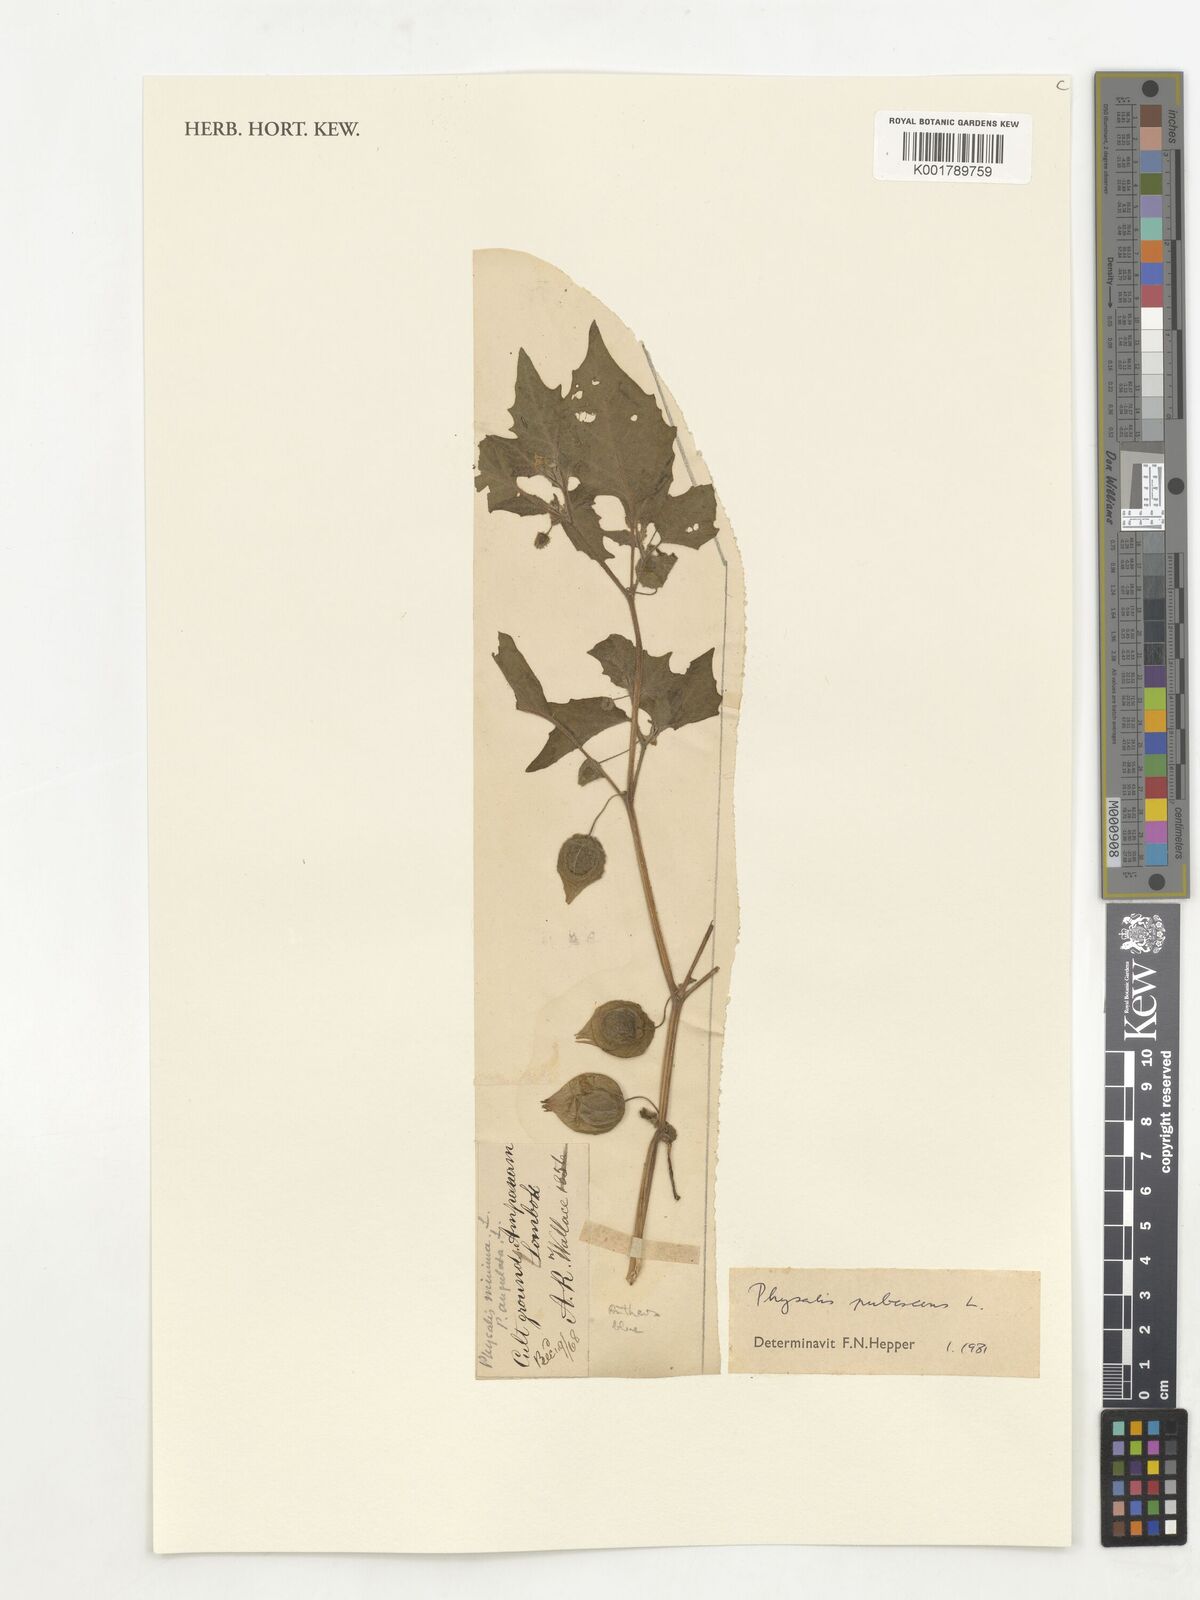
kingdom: Plantae
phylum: Tracheophyta
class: Magnoliopsida
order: Solanales
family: Solanaceae
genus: Physalis
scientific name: Physalis pubescens
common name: Downy ground-cherry
